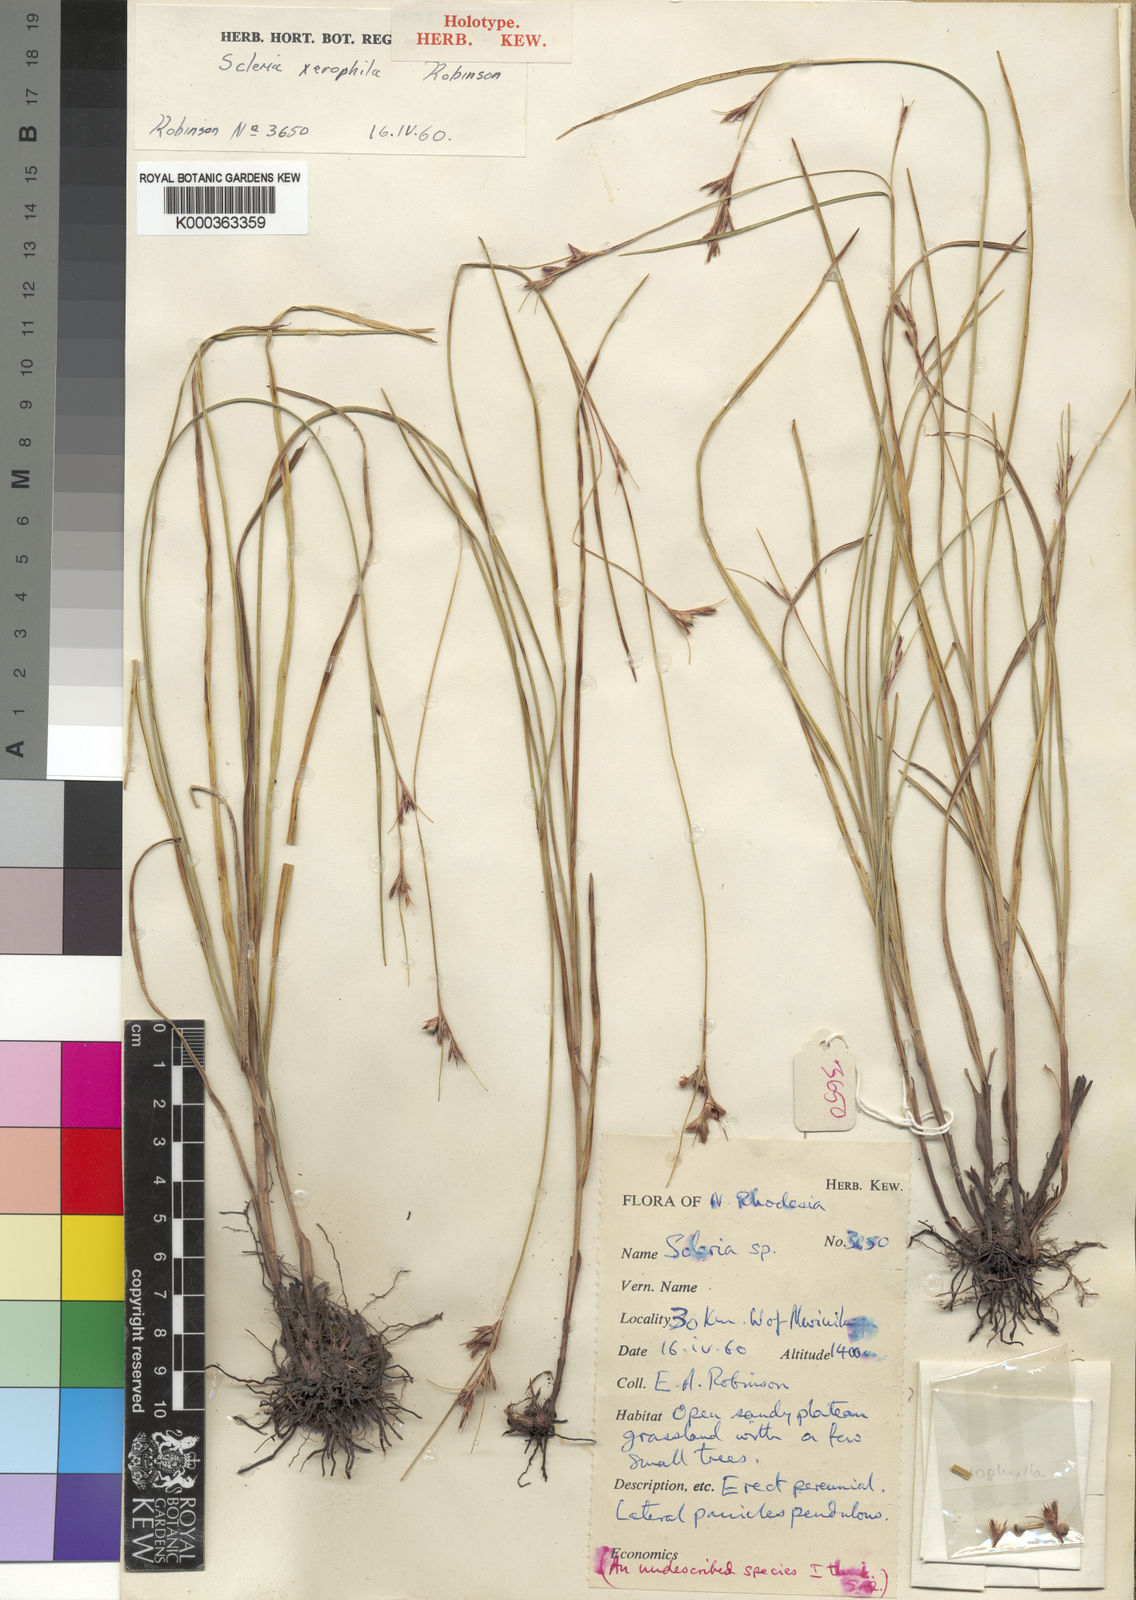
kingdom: Plantae
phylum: Tracheophyta
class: Liliopsida
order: Poales
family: Cyperaceae
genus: Scleria
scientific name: Scleria xerophila
